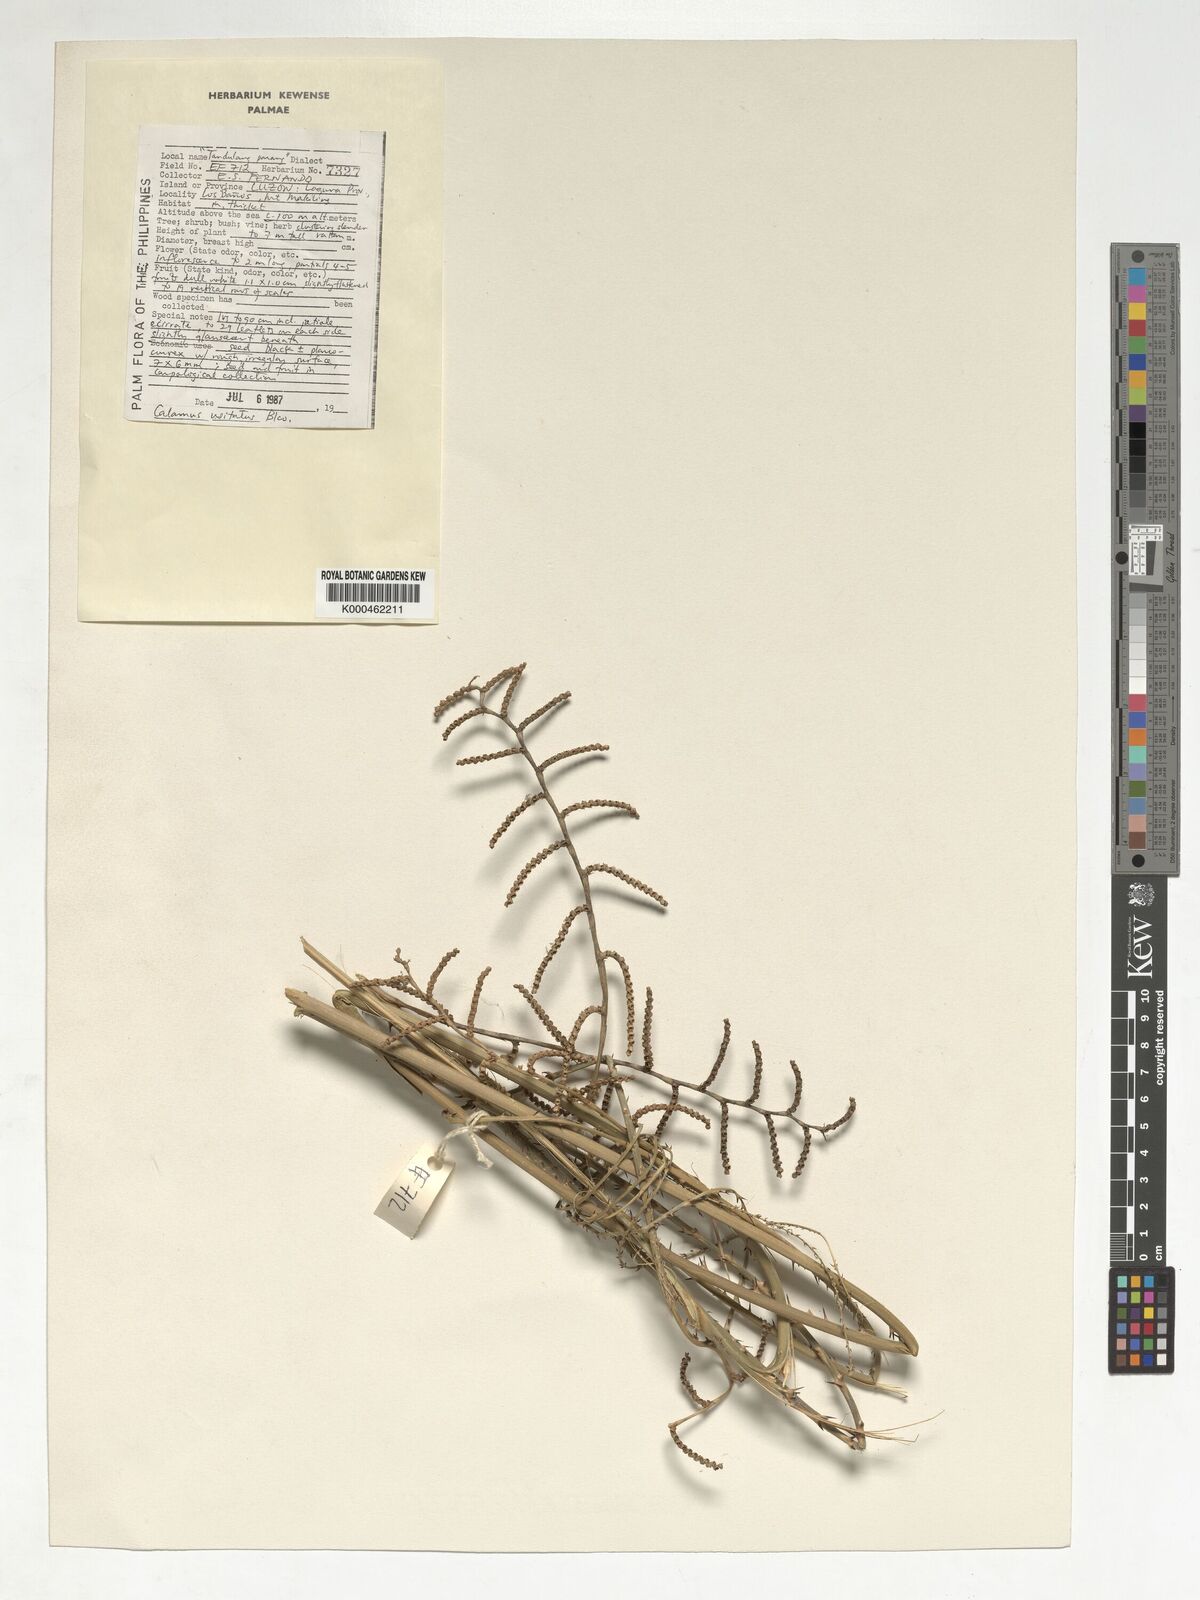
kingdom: Plantae
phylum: Tracheophyta
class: Liliopsida
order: Arecales
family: Arecaceae
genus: Calamus
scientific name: Calamus usitatus
